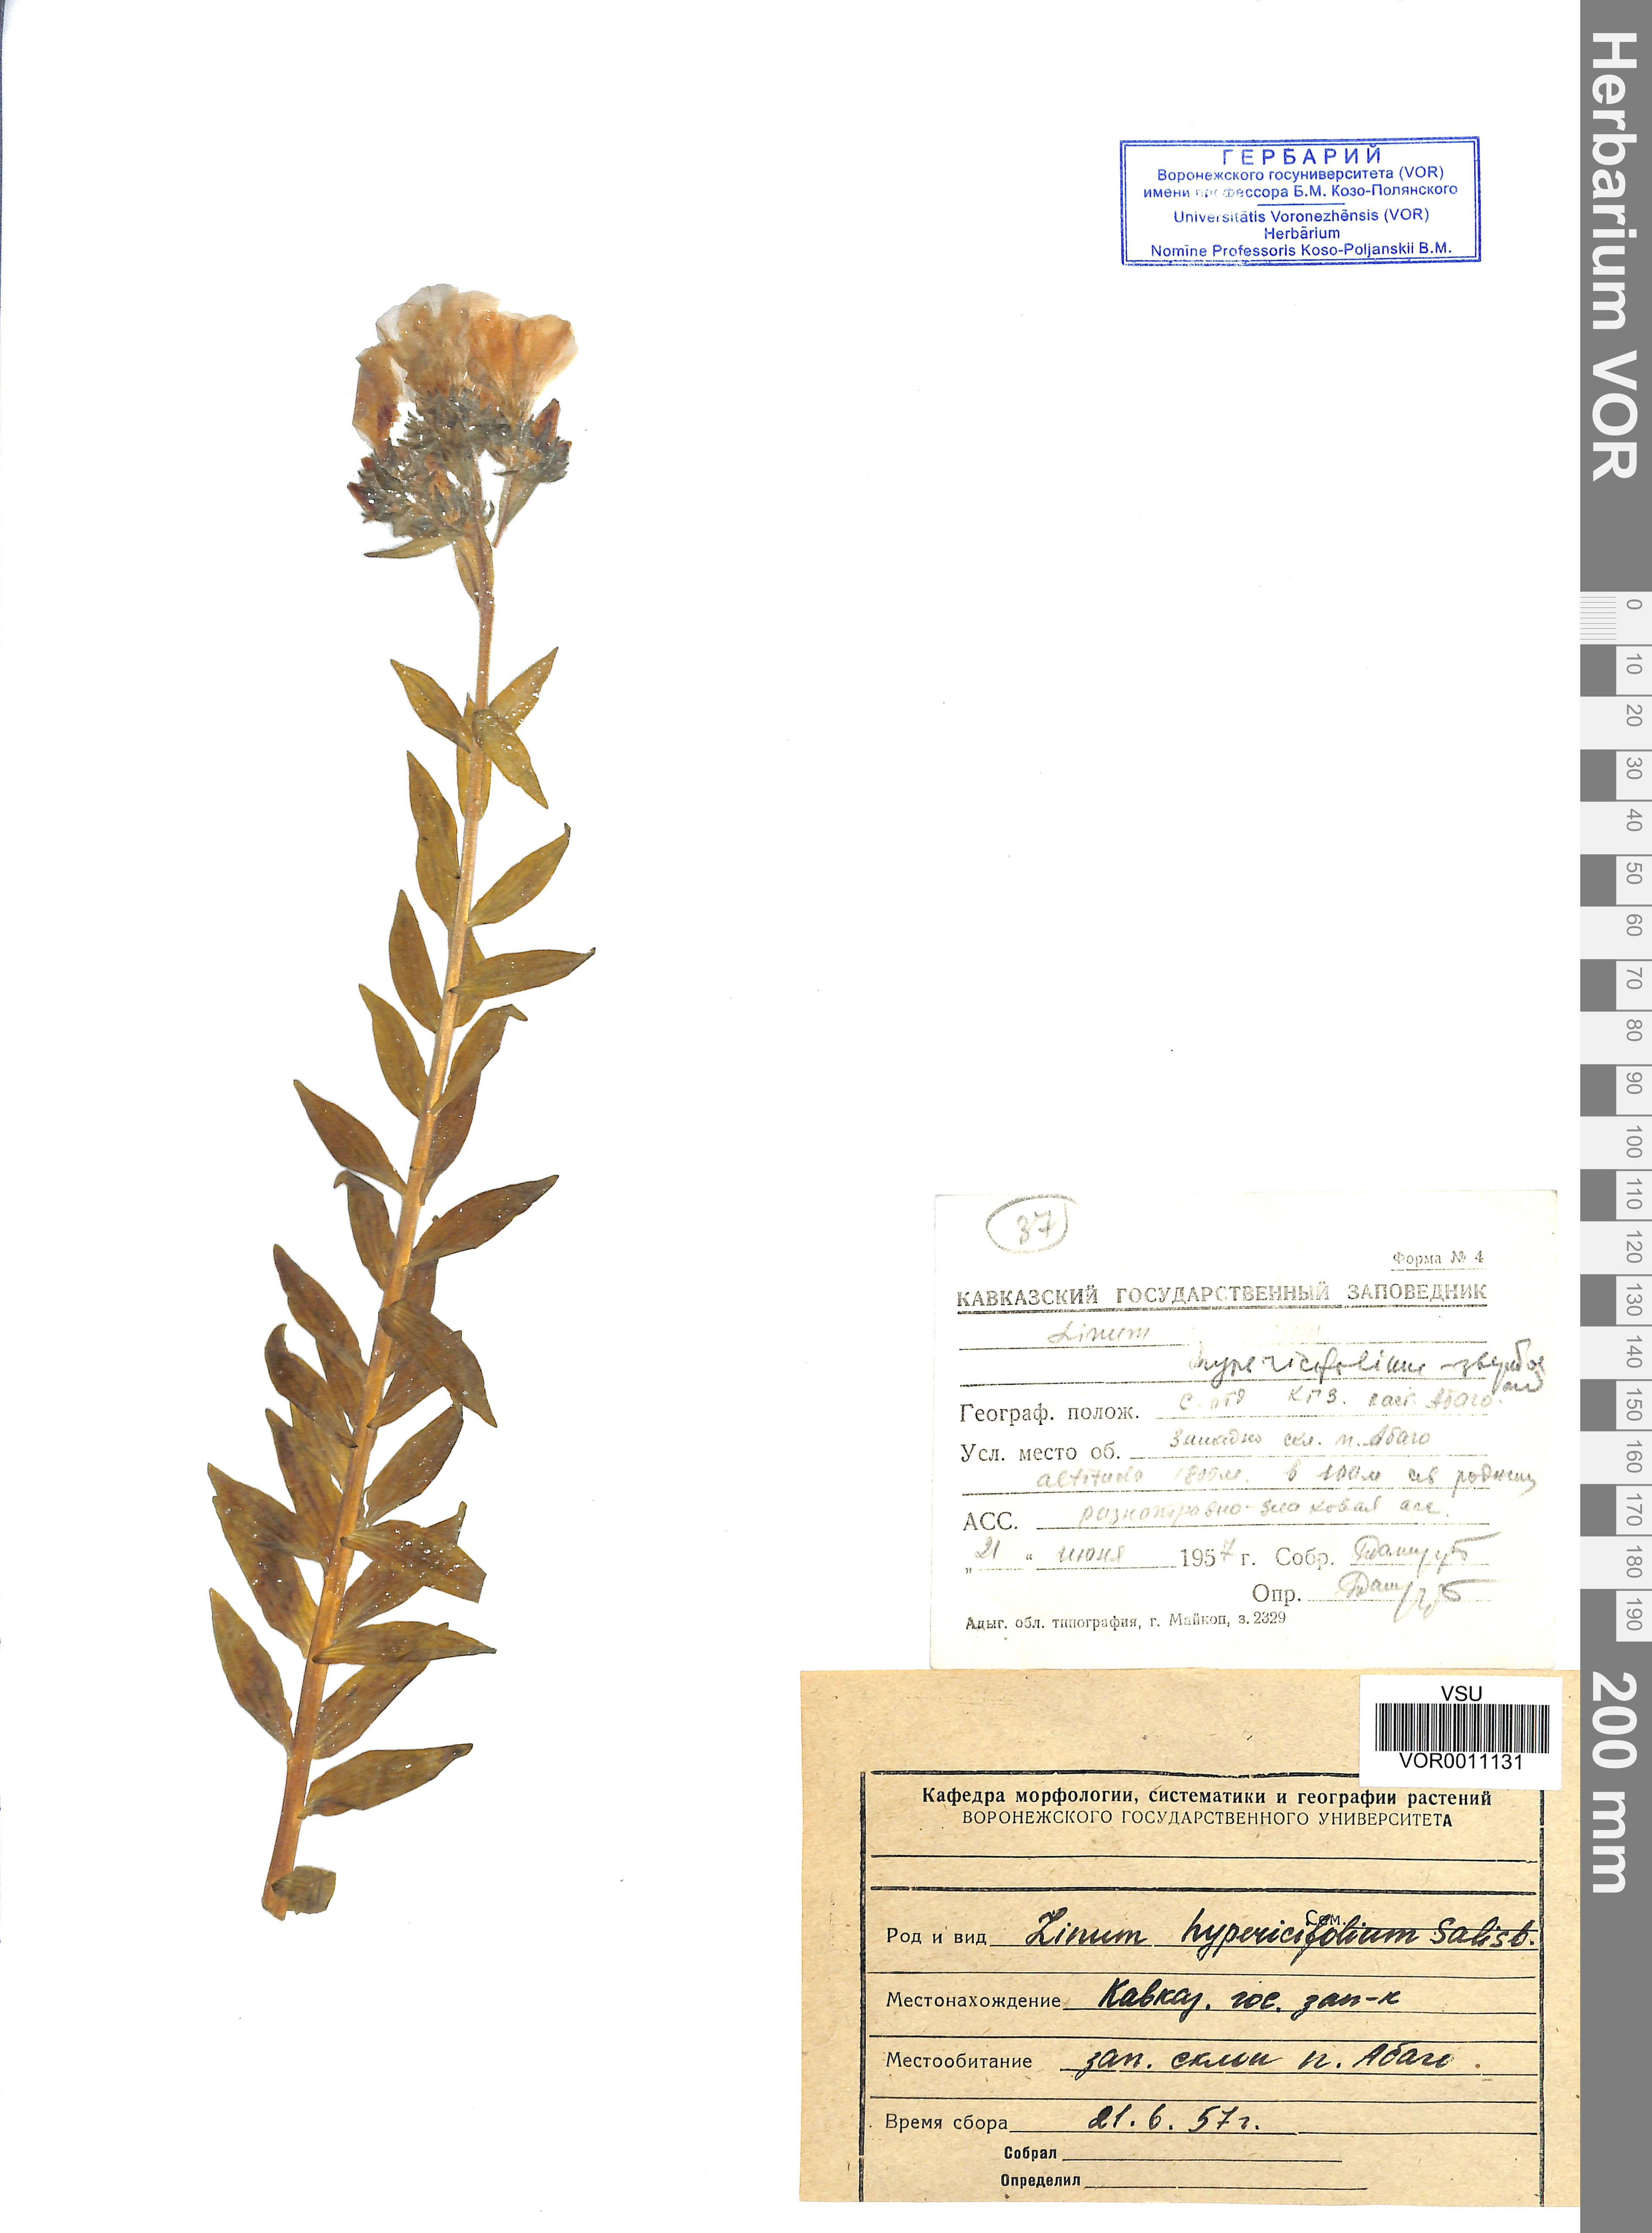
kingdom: Plantae
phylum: Tracheophyta
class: Magnoliopsida
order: Malpighiales
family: Linaceae
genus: Linum
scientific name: Linum hypericifolium
